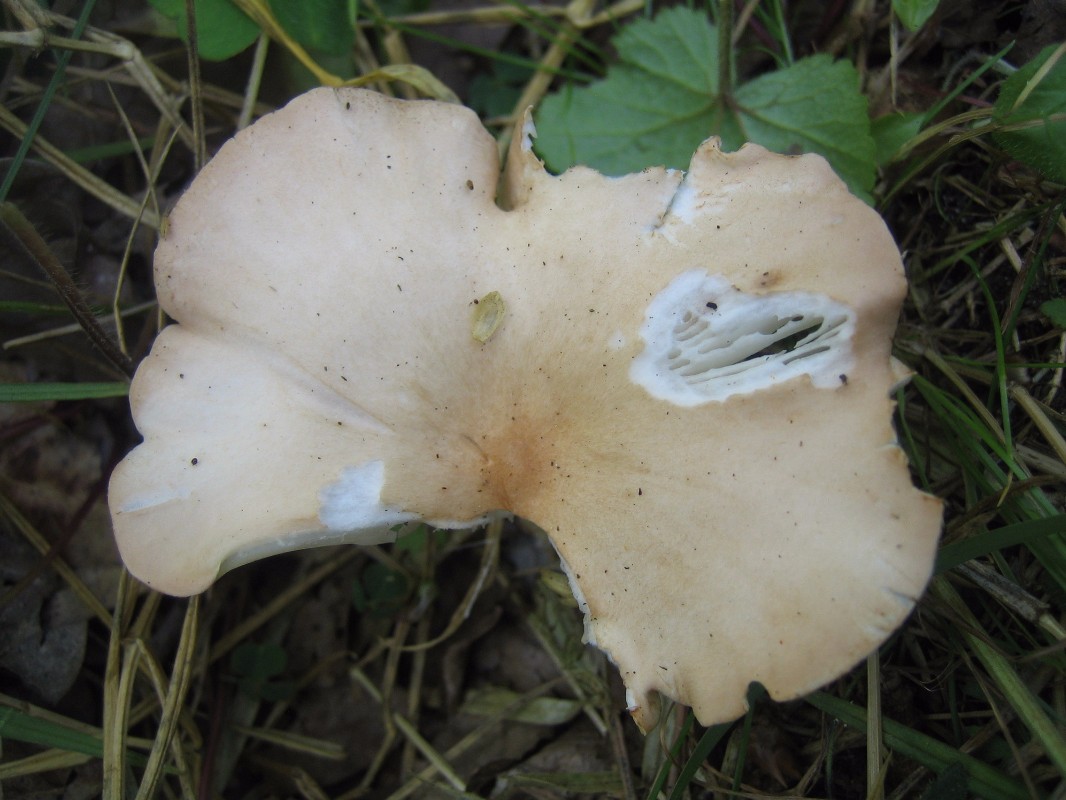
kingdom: Fungi
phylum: Basidiomycota
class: Agaricomycetes
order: Agaricales
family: Tricholomataceae
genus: Infundibulicybe
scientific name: Infundibulicybe gibba
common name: almindelig tragthat
